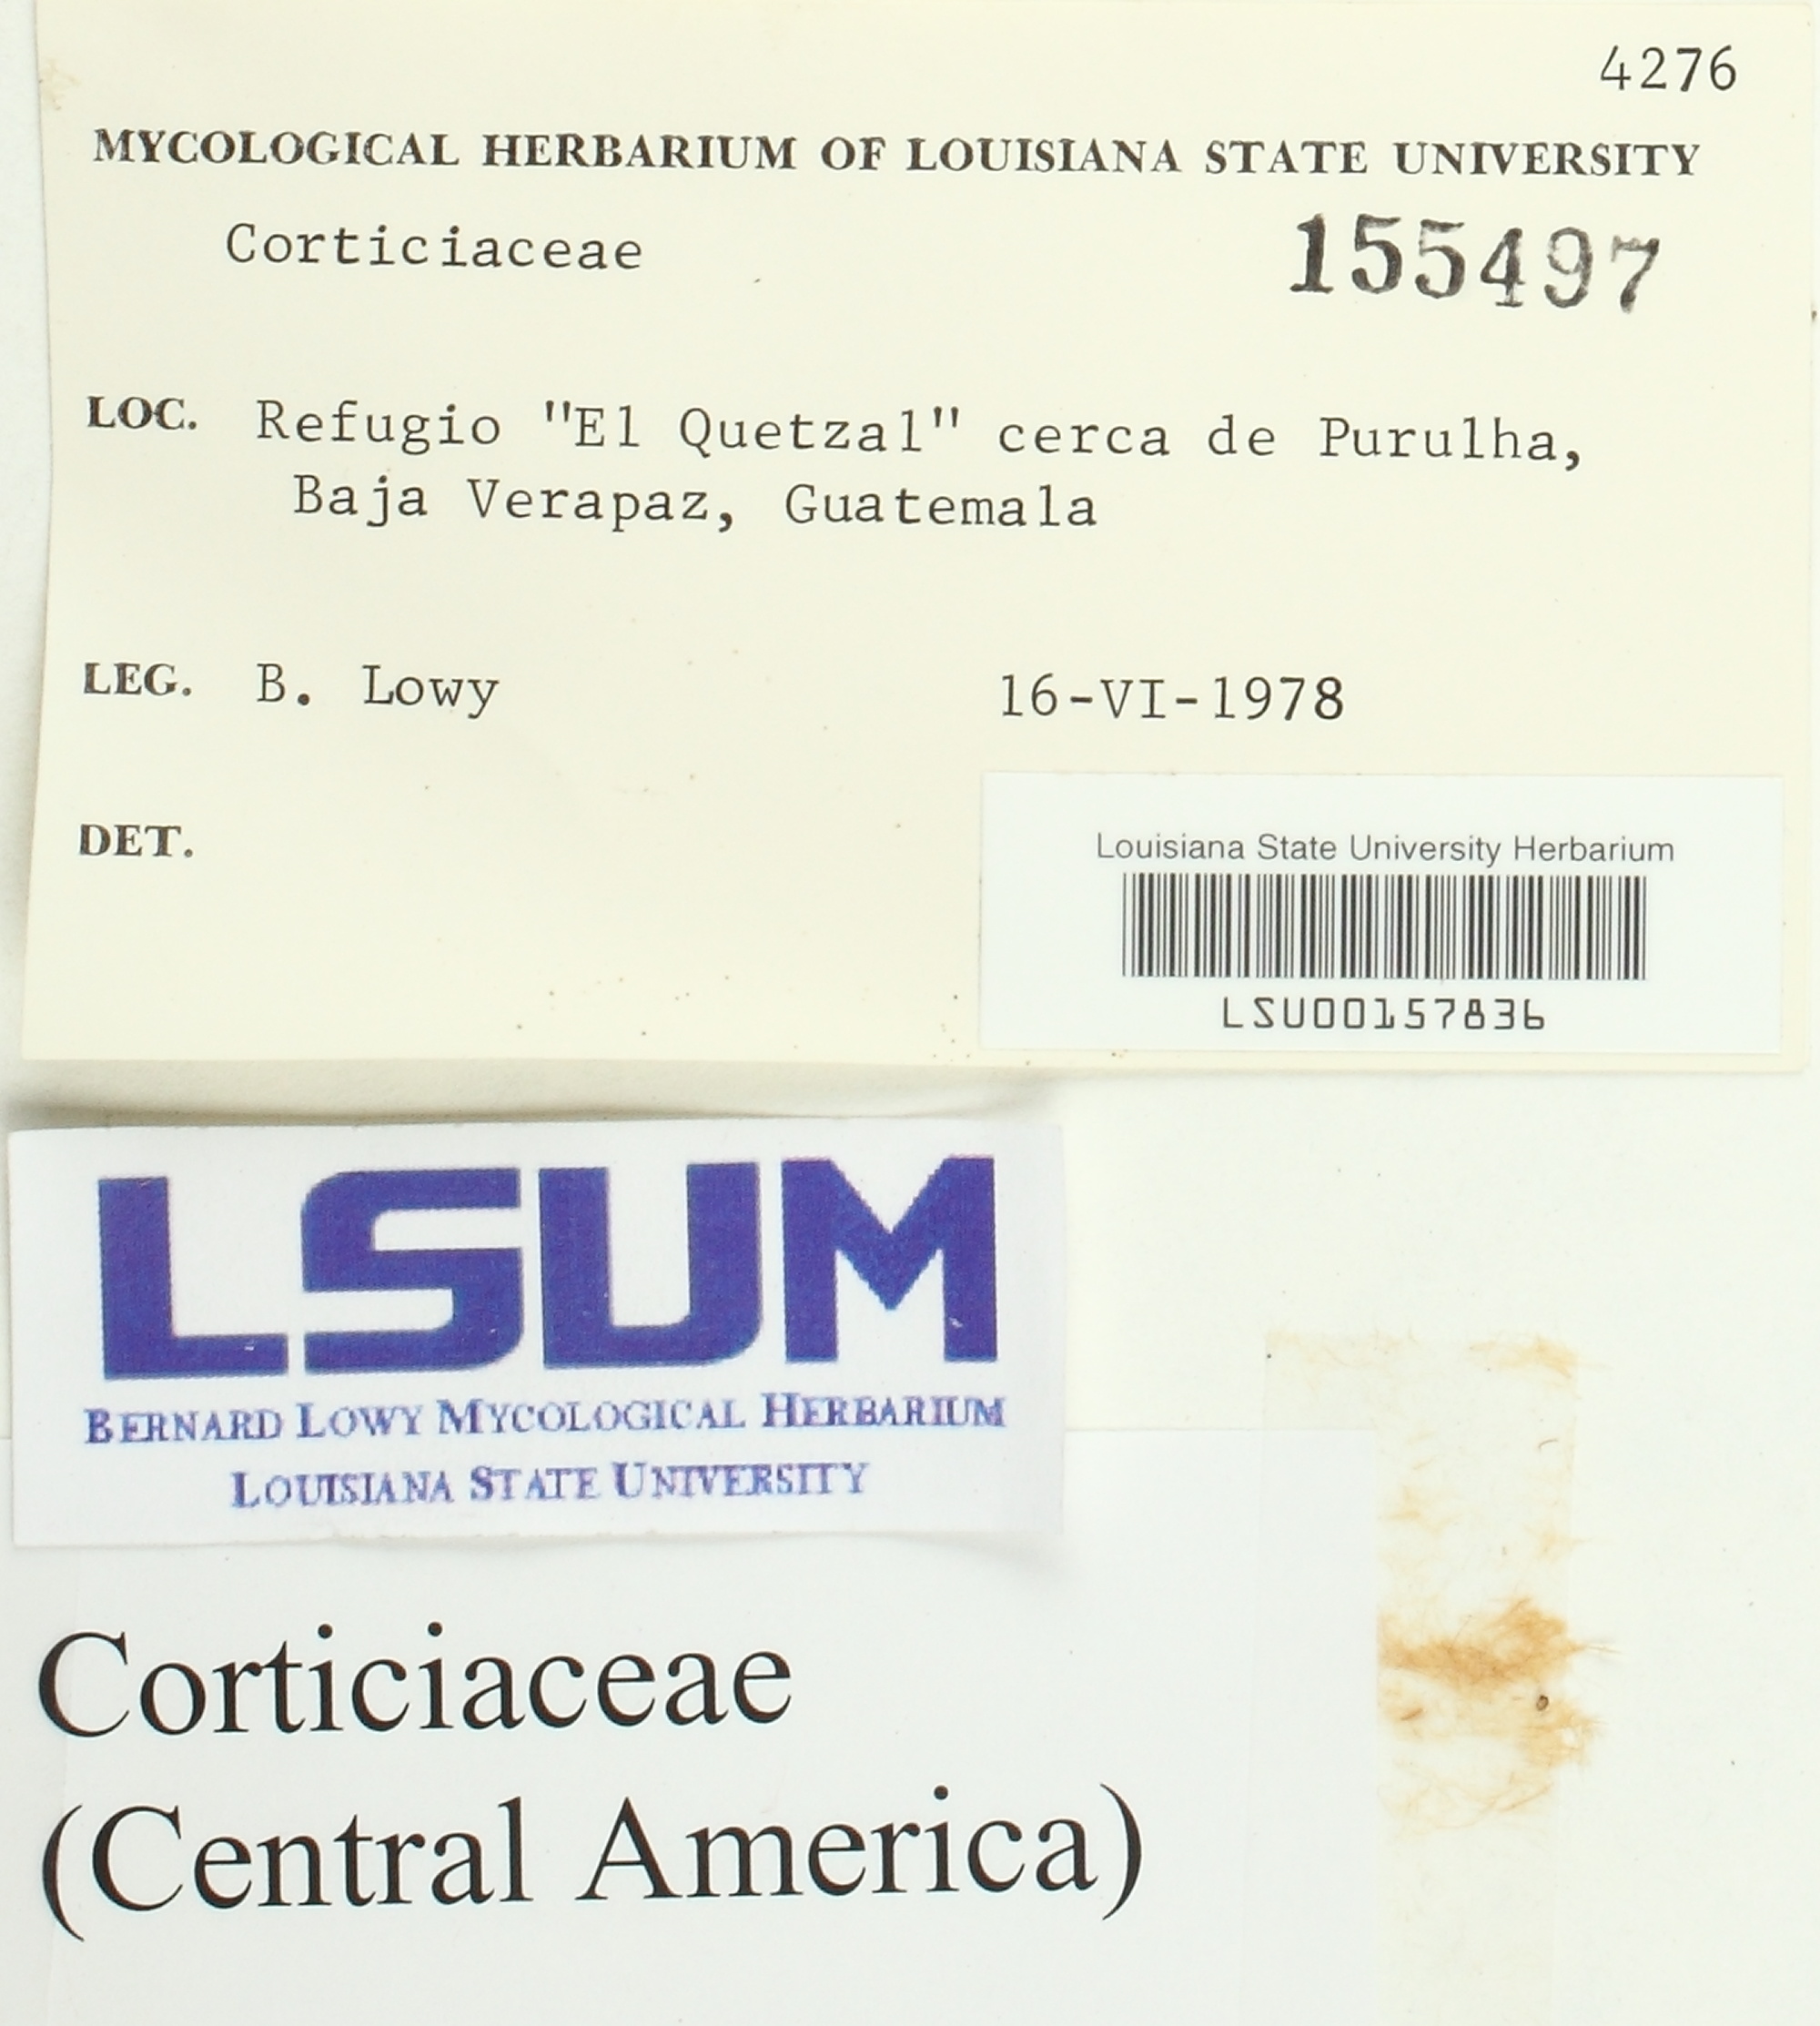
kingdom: Fungi
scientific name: Fungi
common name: Fungi
